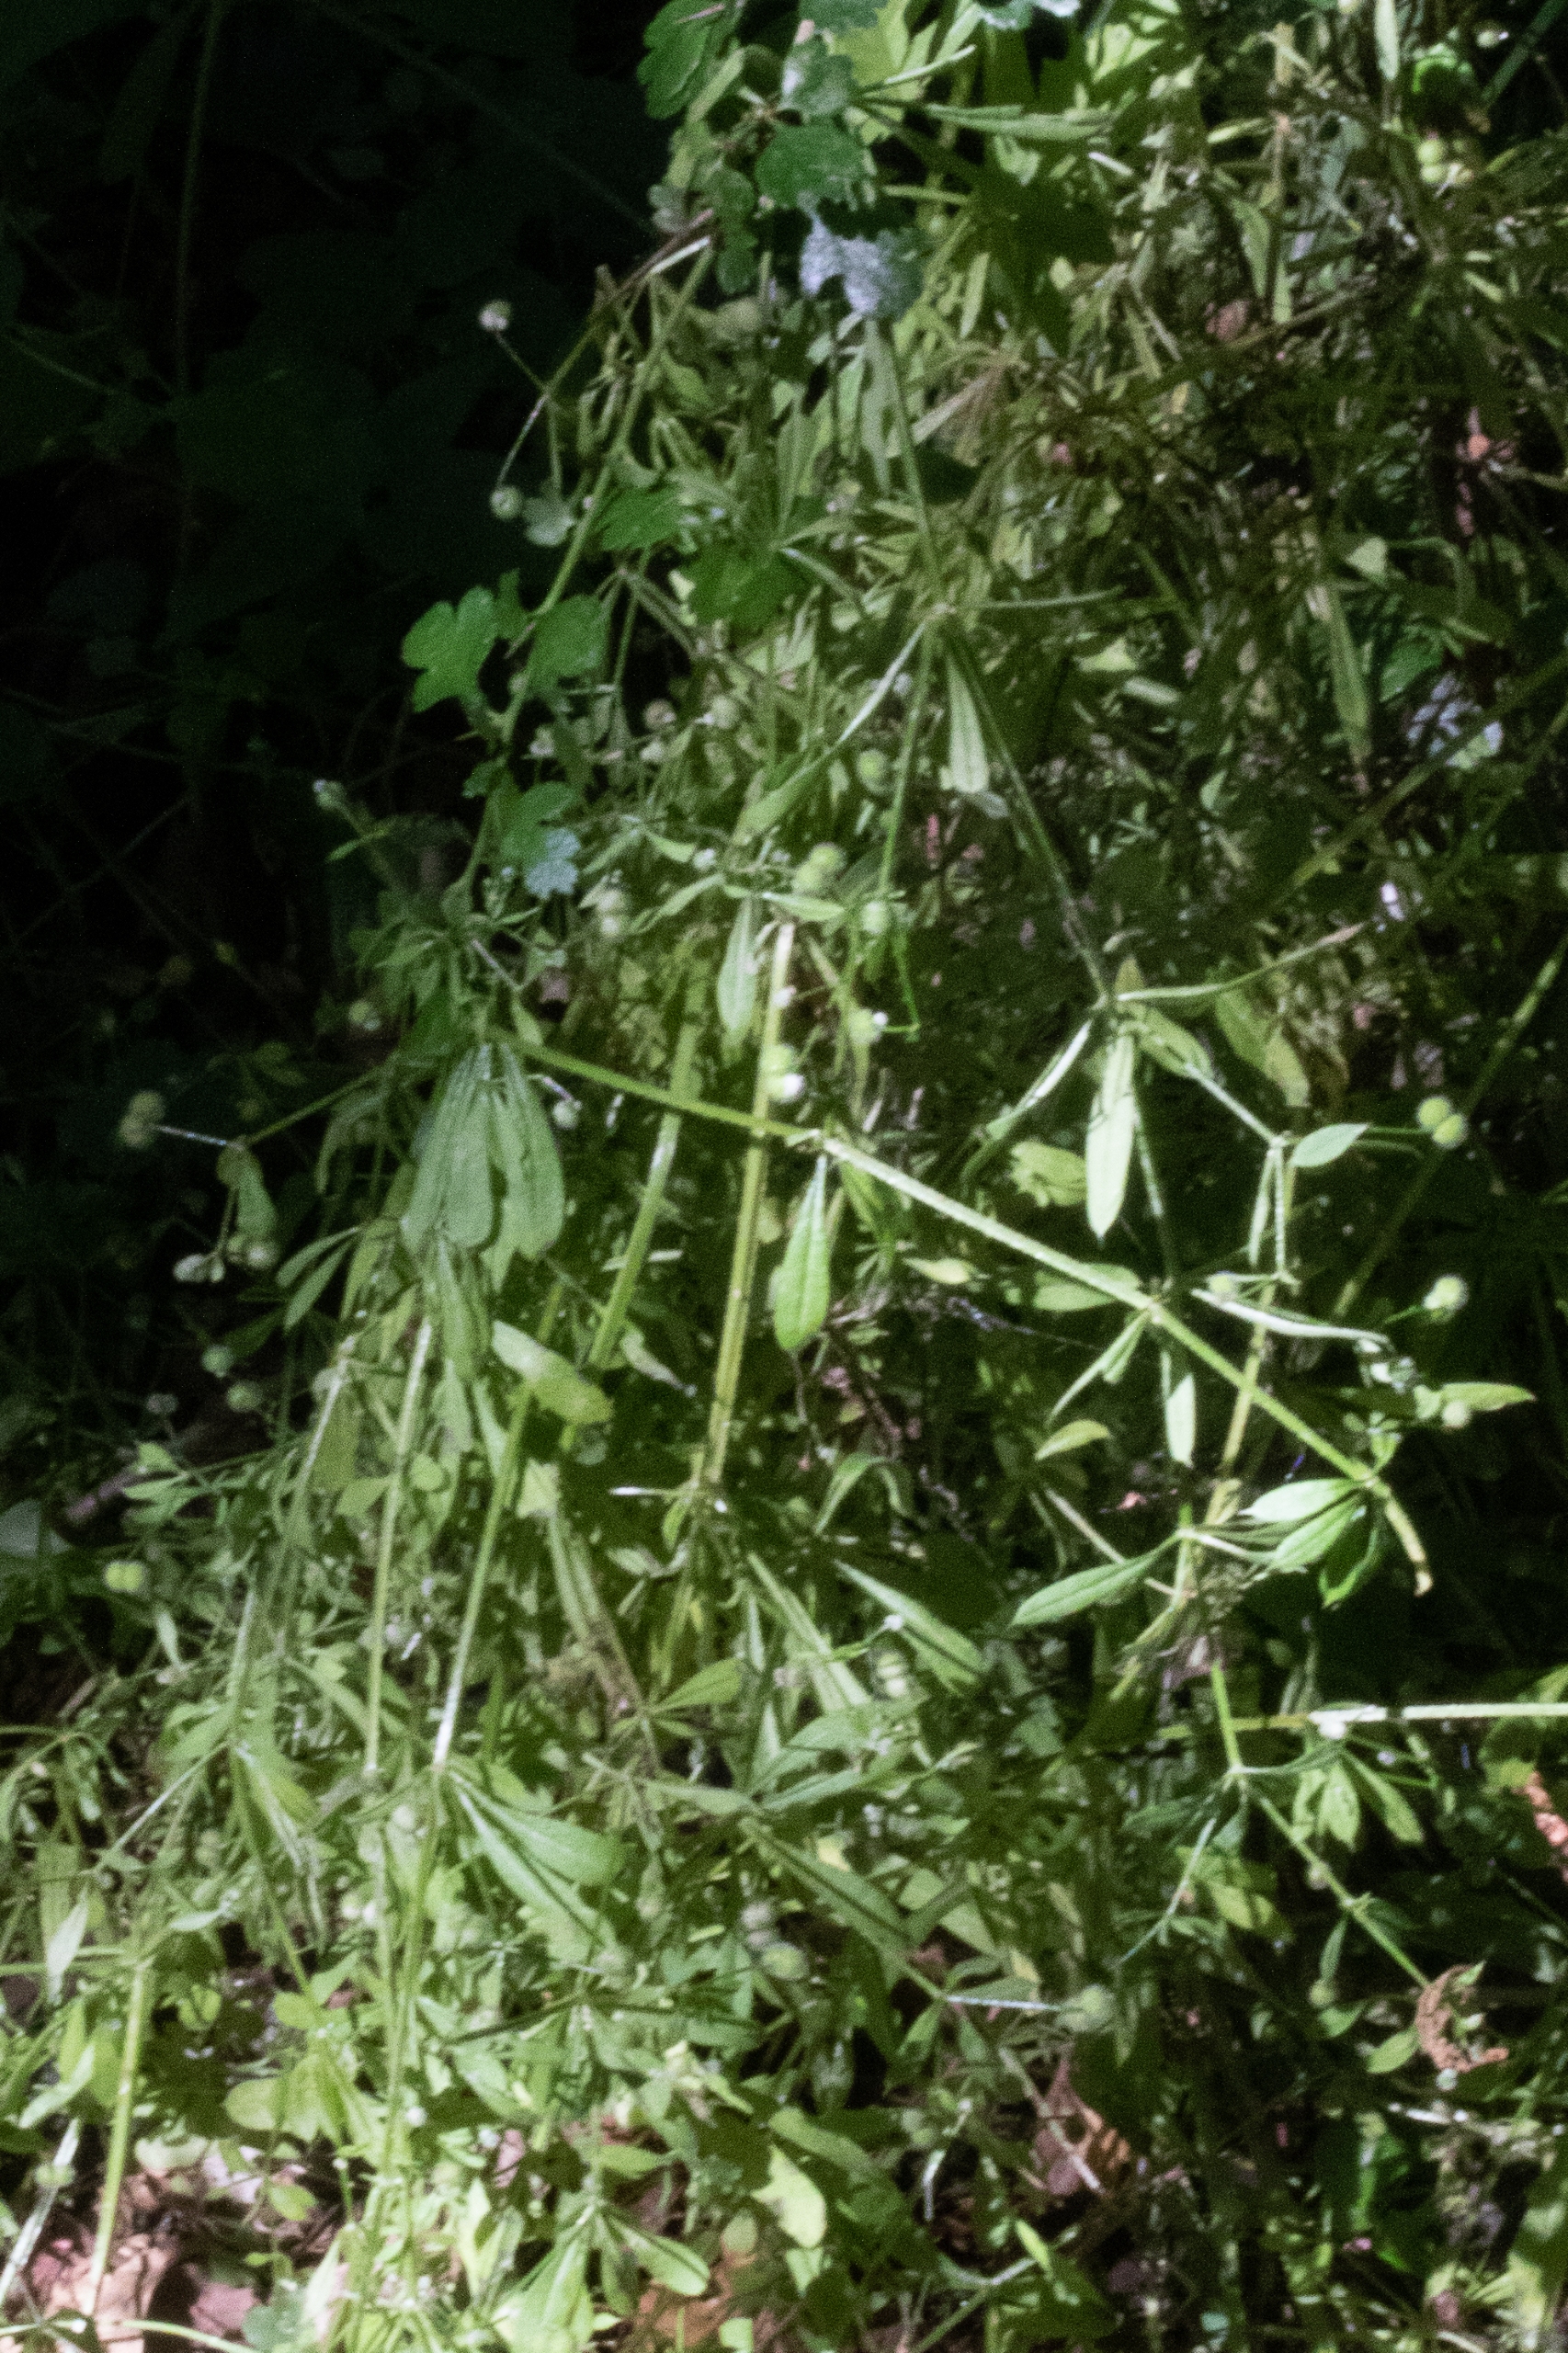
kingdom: Plantae
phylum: Tracheophyta
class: Magnoliopsida
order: Gentianales
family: Rubiaceae
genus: Galium
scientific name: Galium aparine
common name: Burre-snerre
